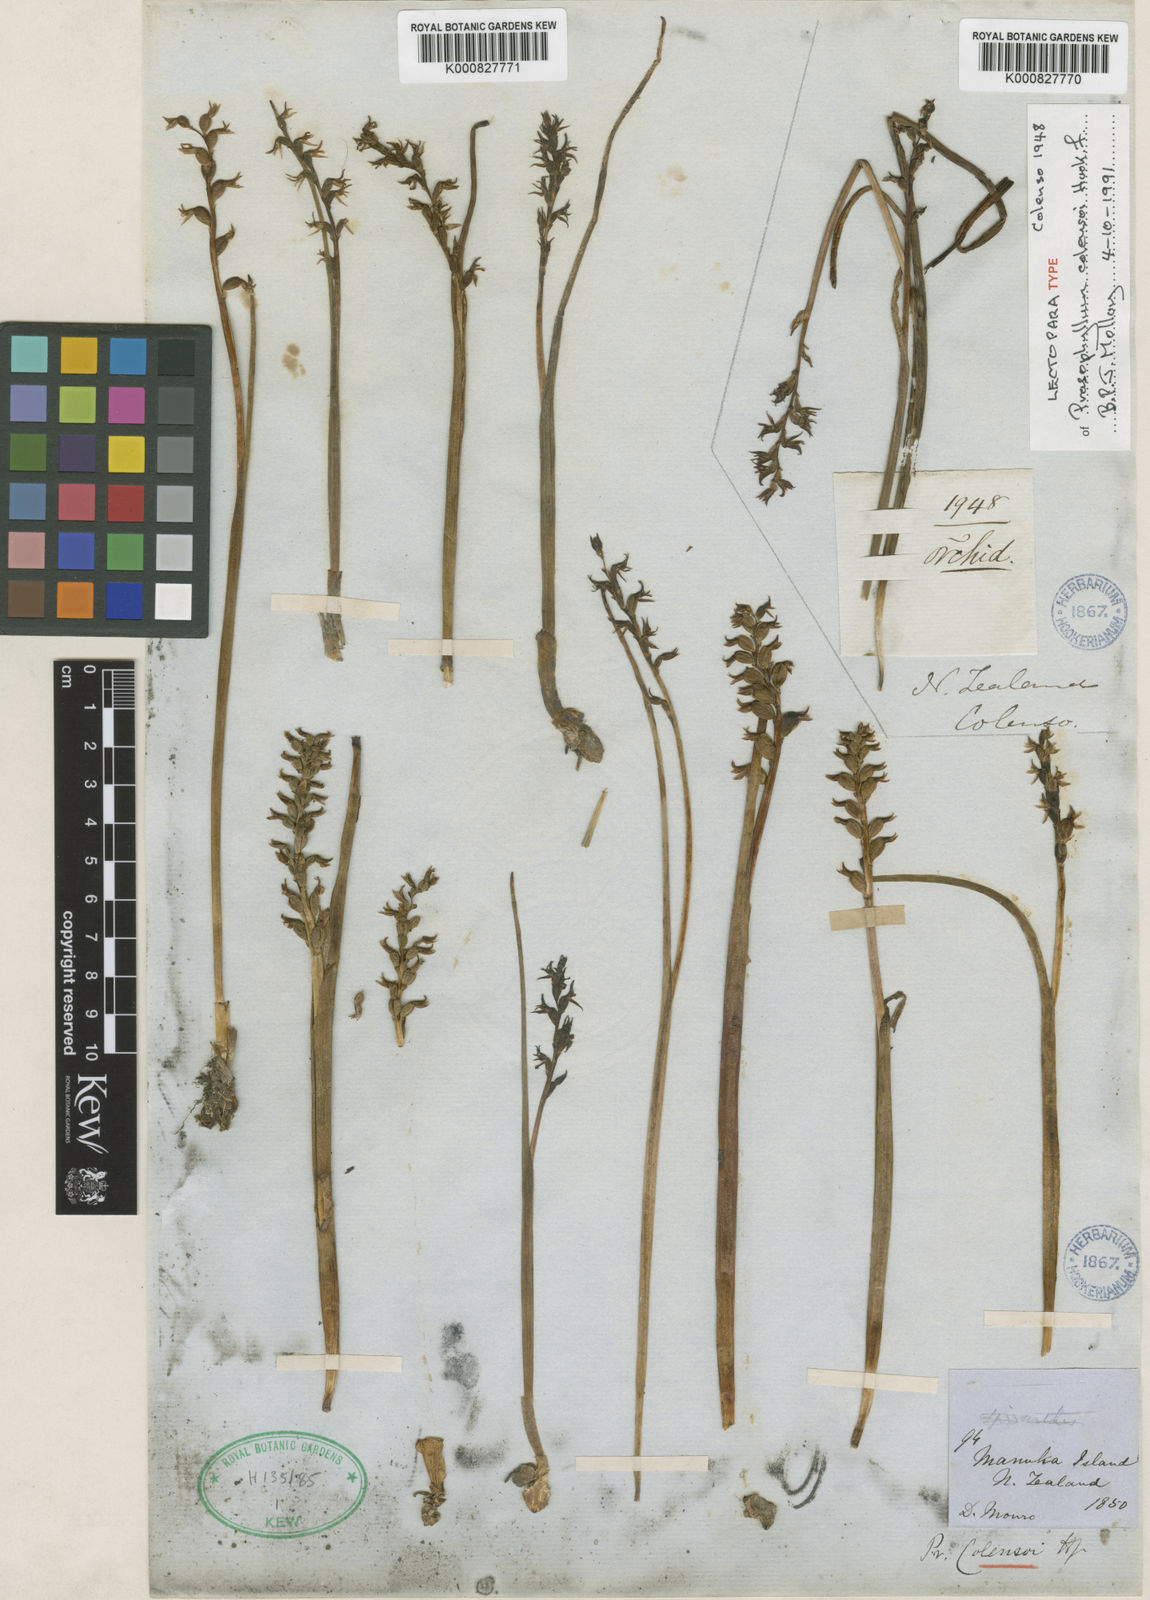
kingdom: Plantae
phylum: Tracheophyta
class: Liliopsida
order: Asparagales
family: Orchidaceae
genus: Prasophyllum
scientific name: Prasophyllum colensoi
